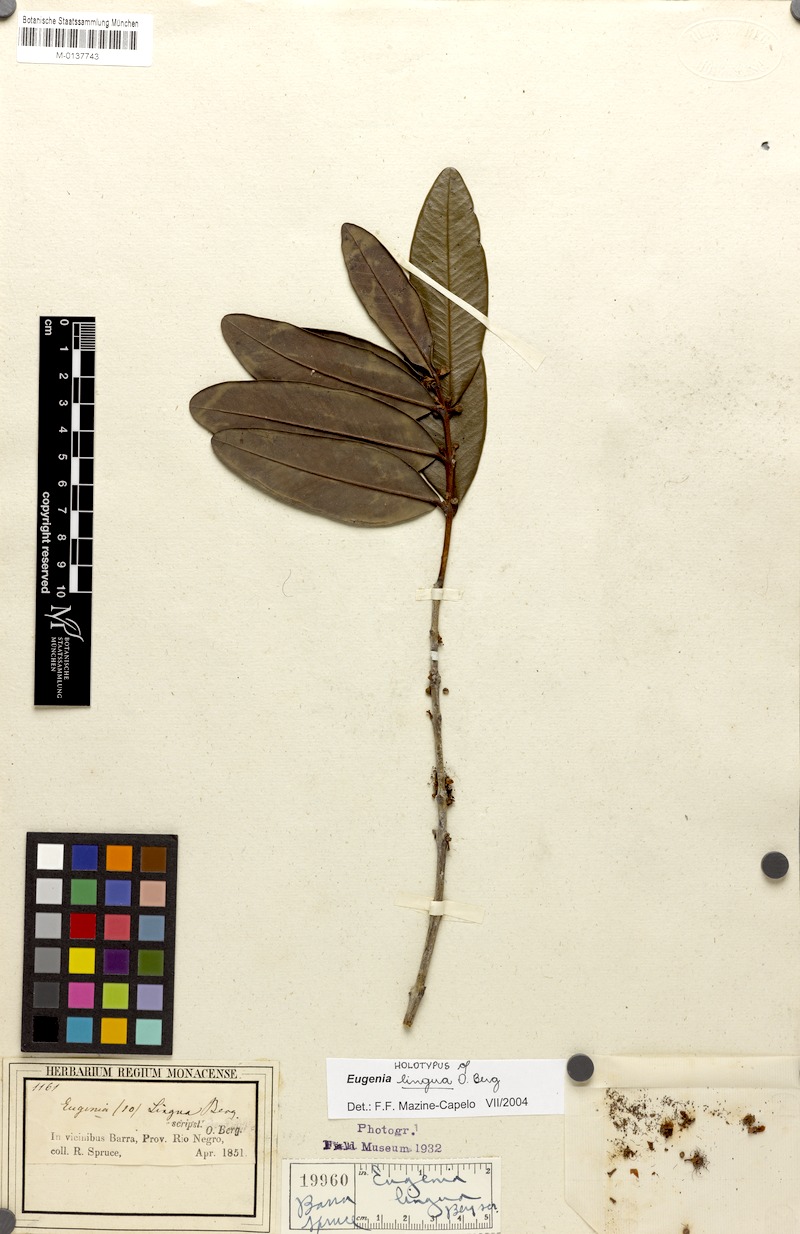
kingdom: Plantae
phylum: Tracheophyta
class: Magnoliopsida
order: Myrtales
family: Myrtaceae
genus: Eugenia
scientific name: Eugenia cachoeirensis
